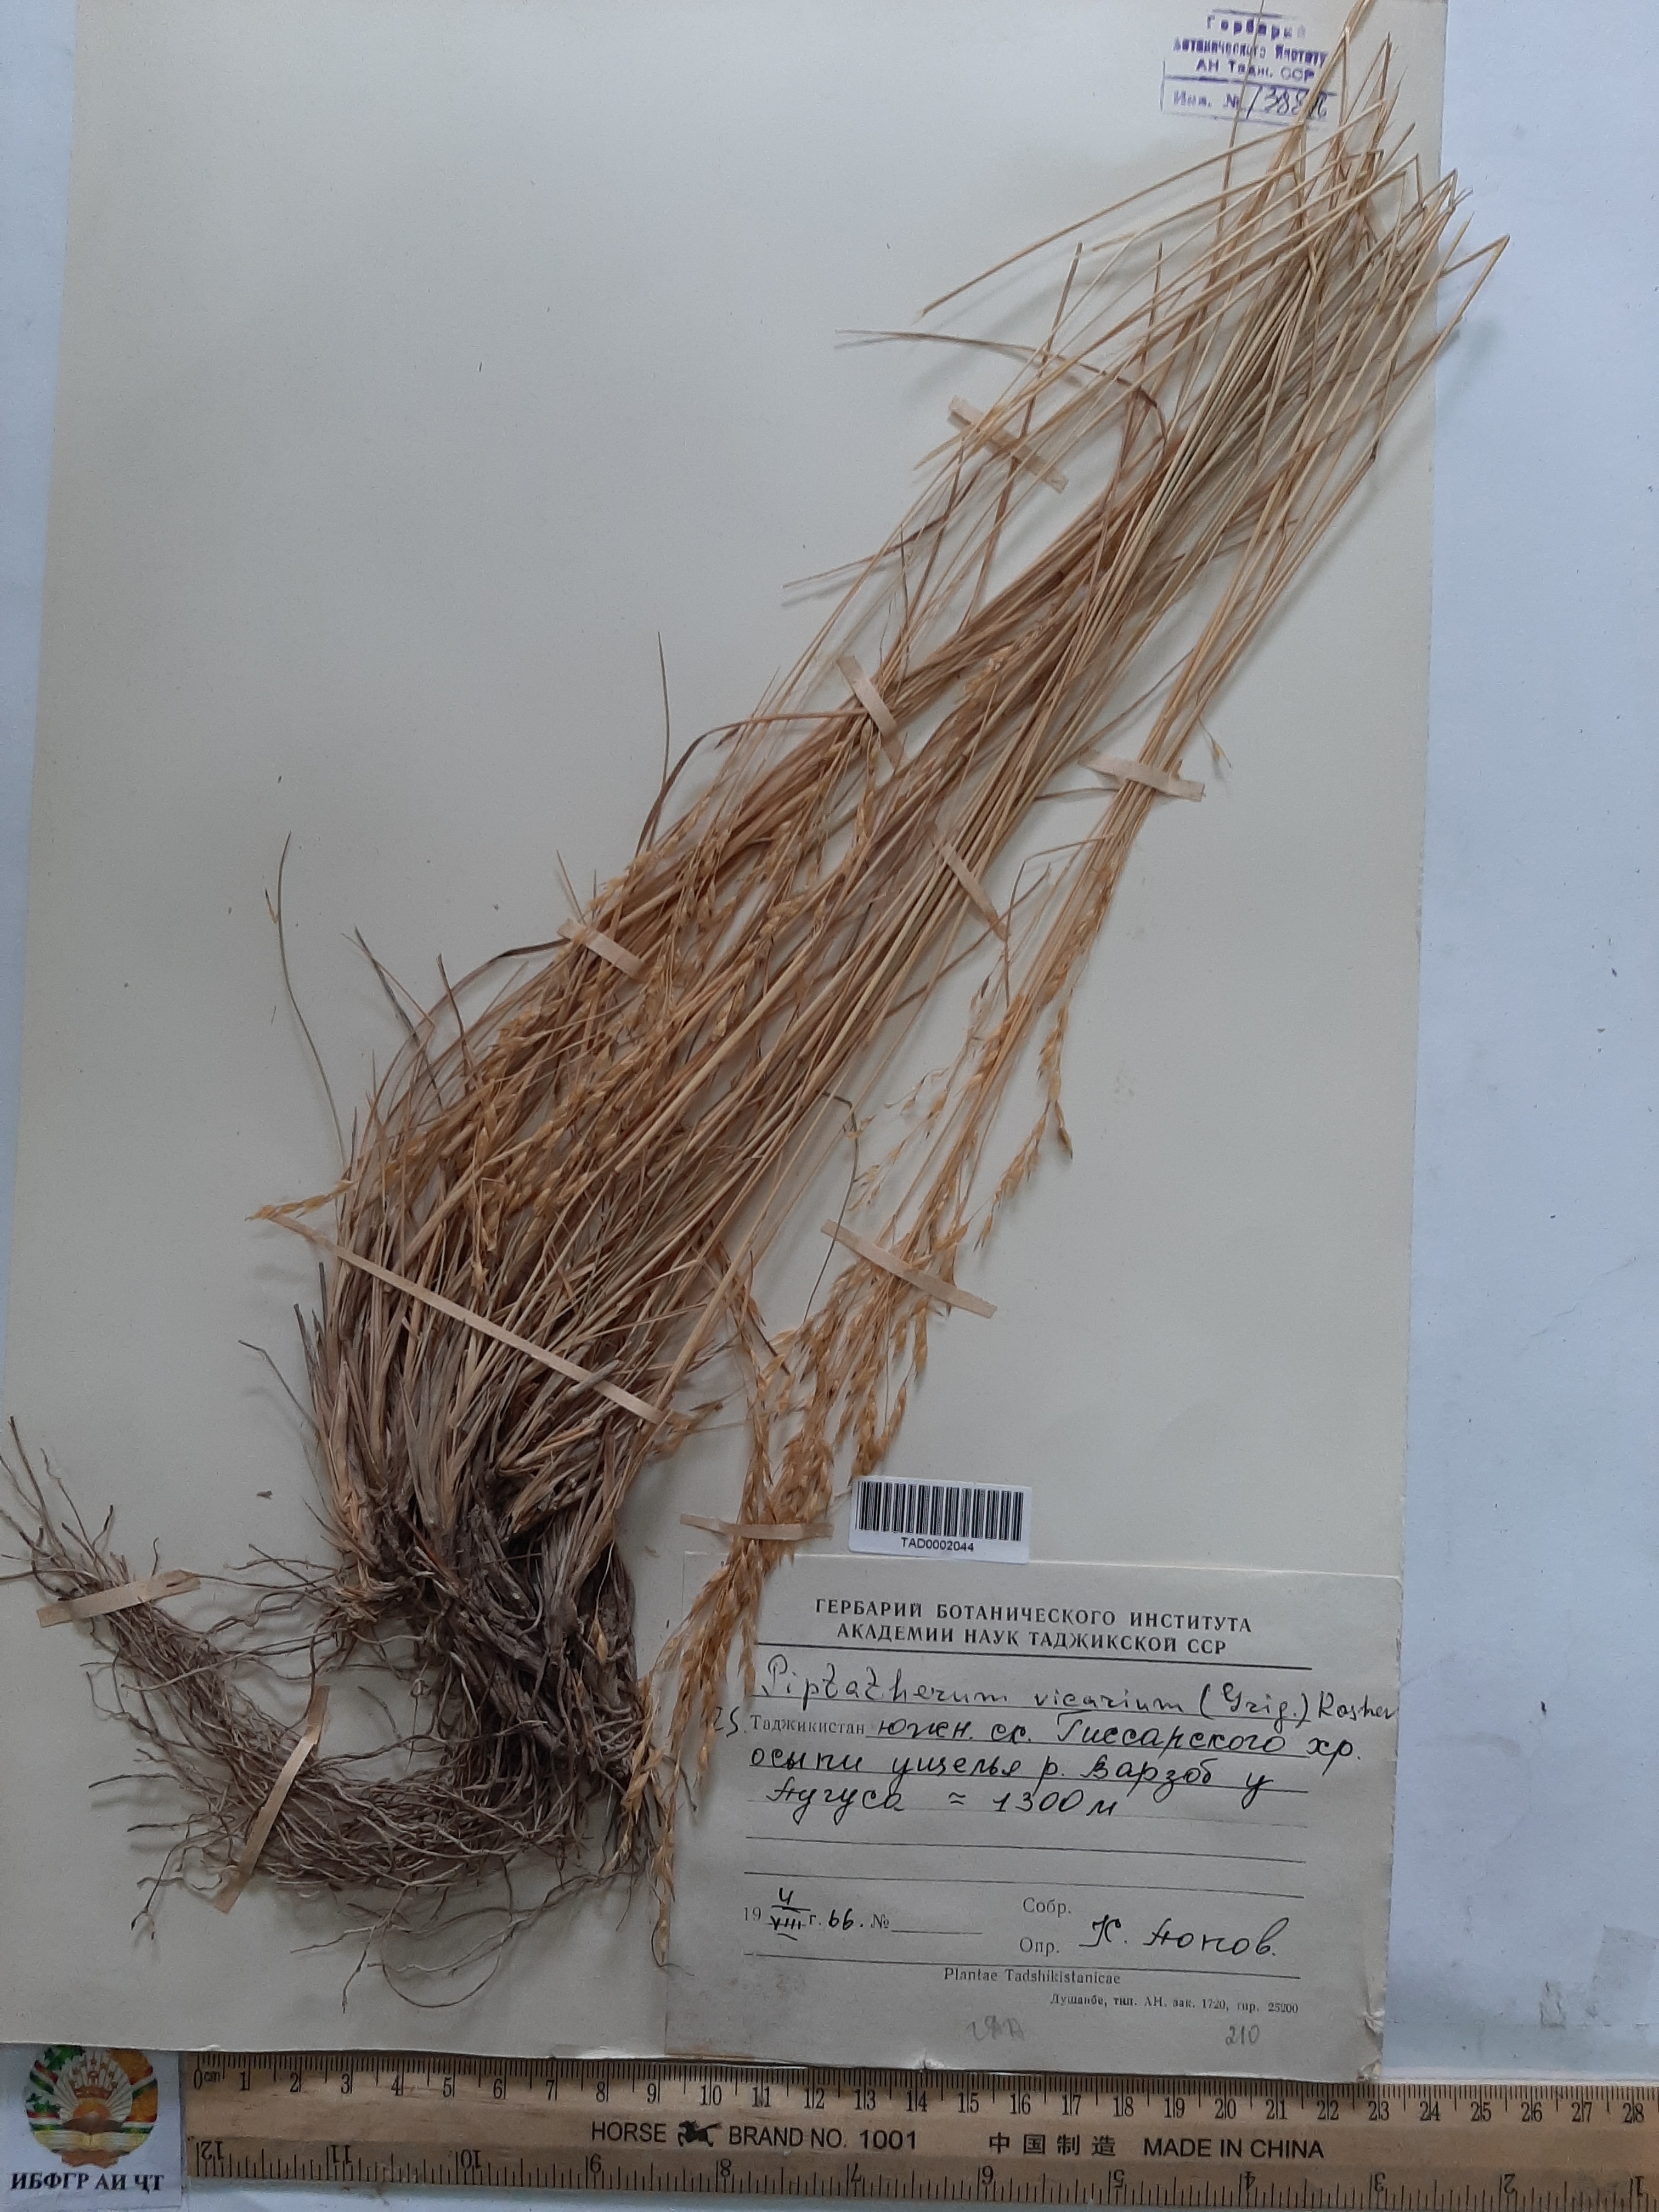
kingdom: Plantae
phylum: Tracheophyta
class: Liliopsida
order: Poales
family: Poaceae
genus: Piptatherum
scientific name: Piptatherum microcarpum
